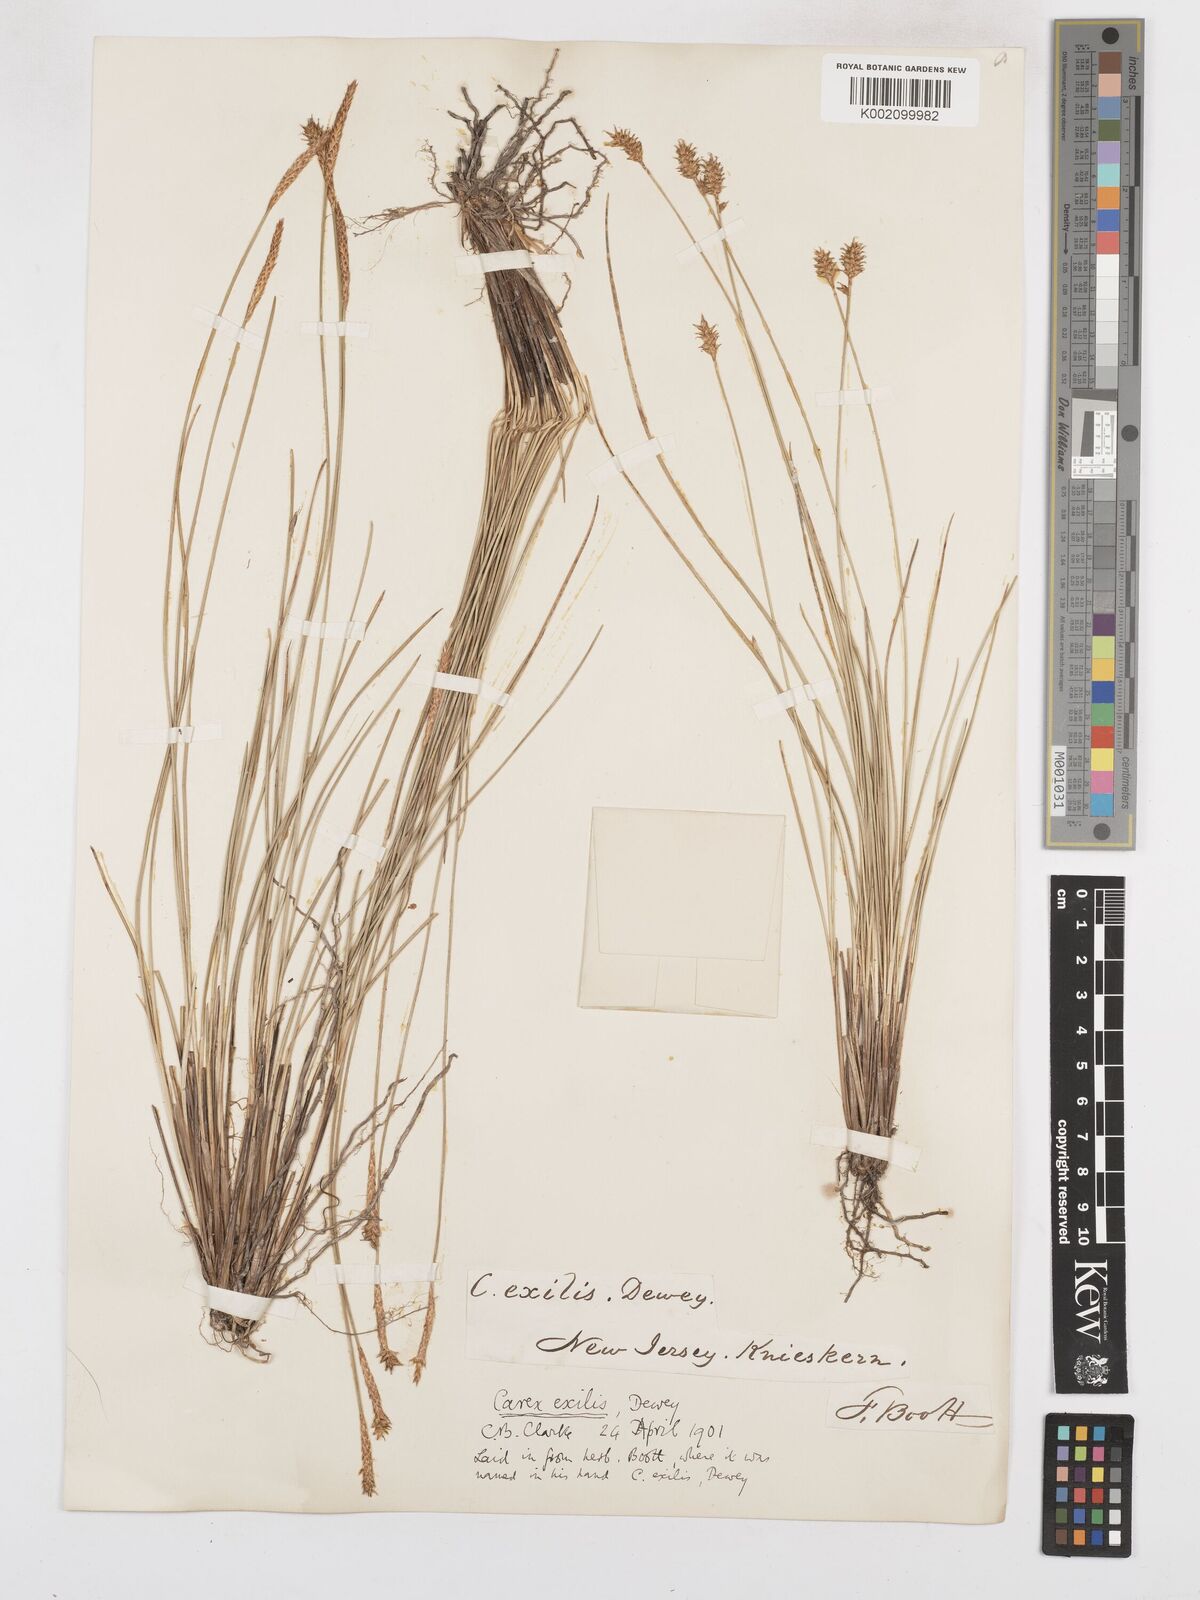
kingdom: Plantae
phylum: Tracheophyta
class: Liliopsida
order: Poales
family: Cyperaceae
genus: Carex
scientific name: Carex exilis
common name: Coastal sedge
